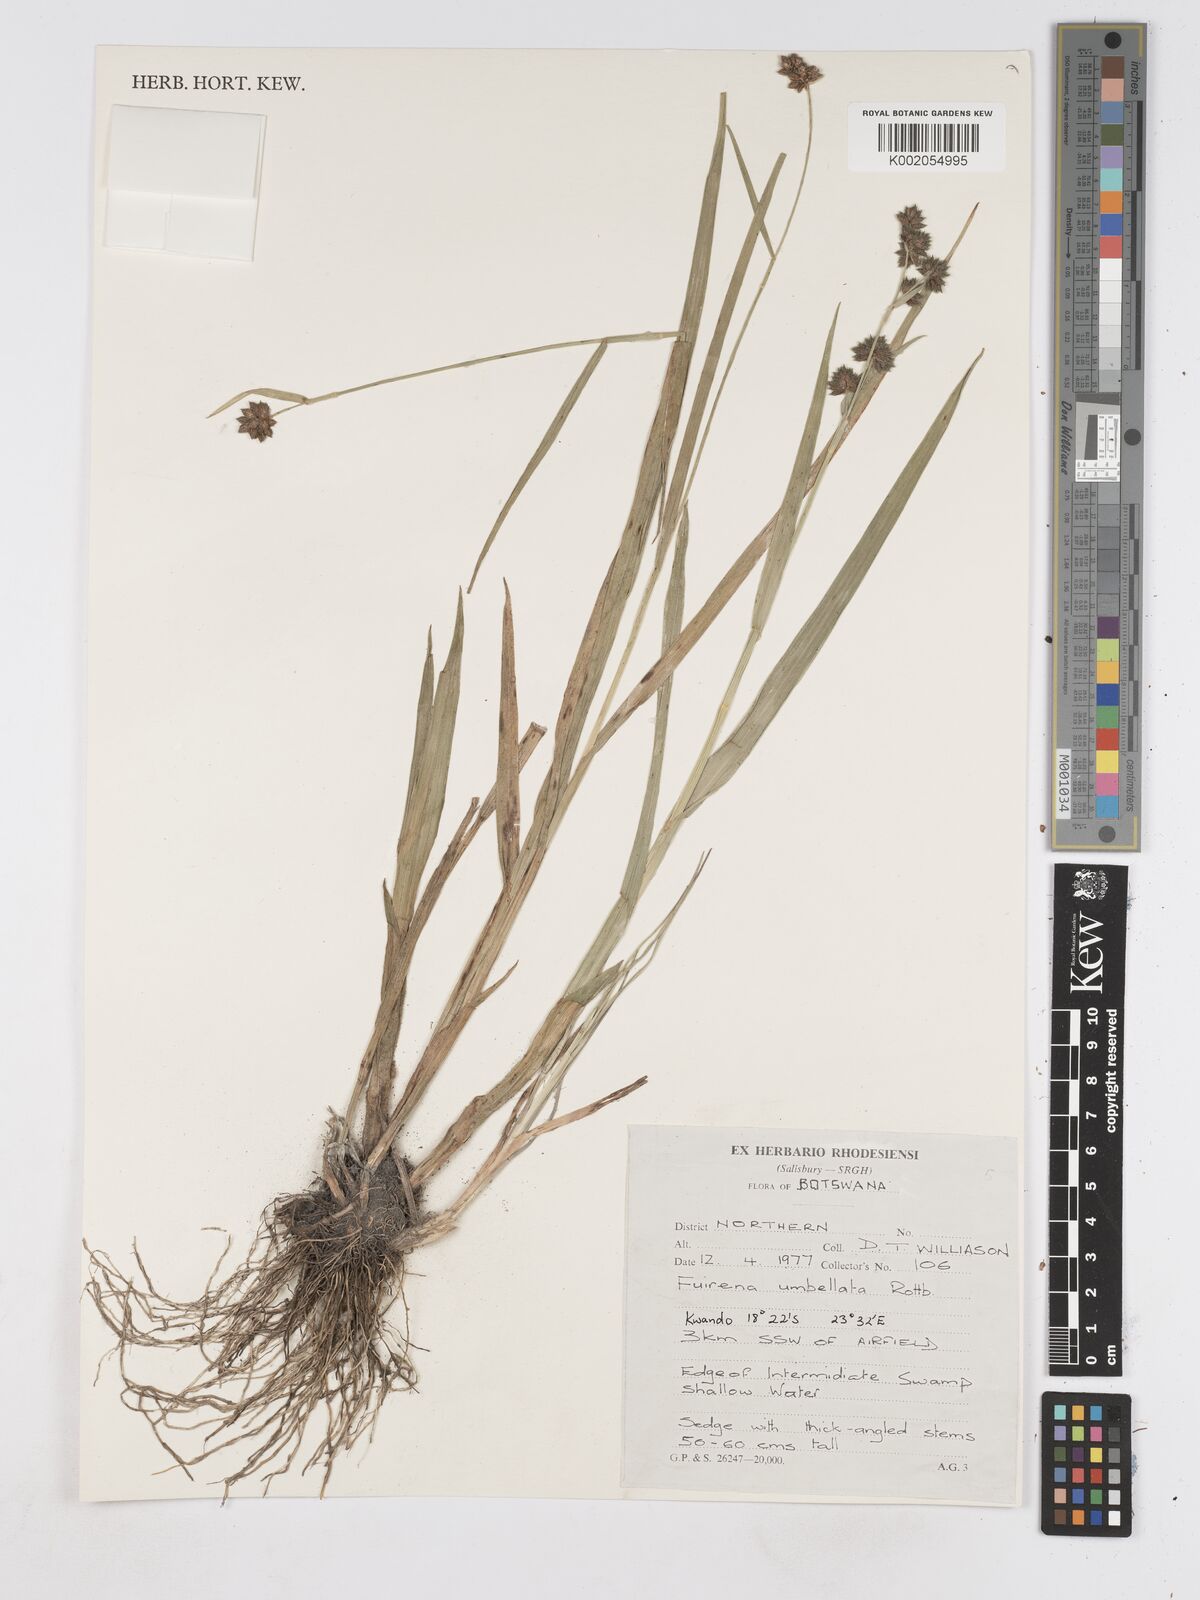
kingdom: Plantae
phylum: Tracheophyta
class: Liliopsida
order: Poales
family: Cyperaceae
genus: Fuirena
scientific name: Fuirena umbellata
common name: Yefen
